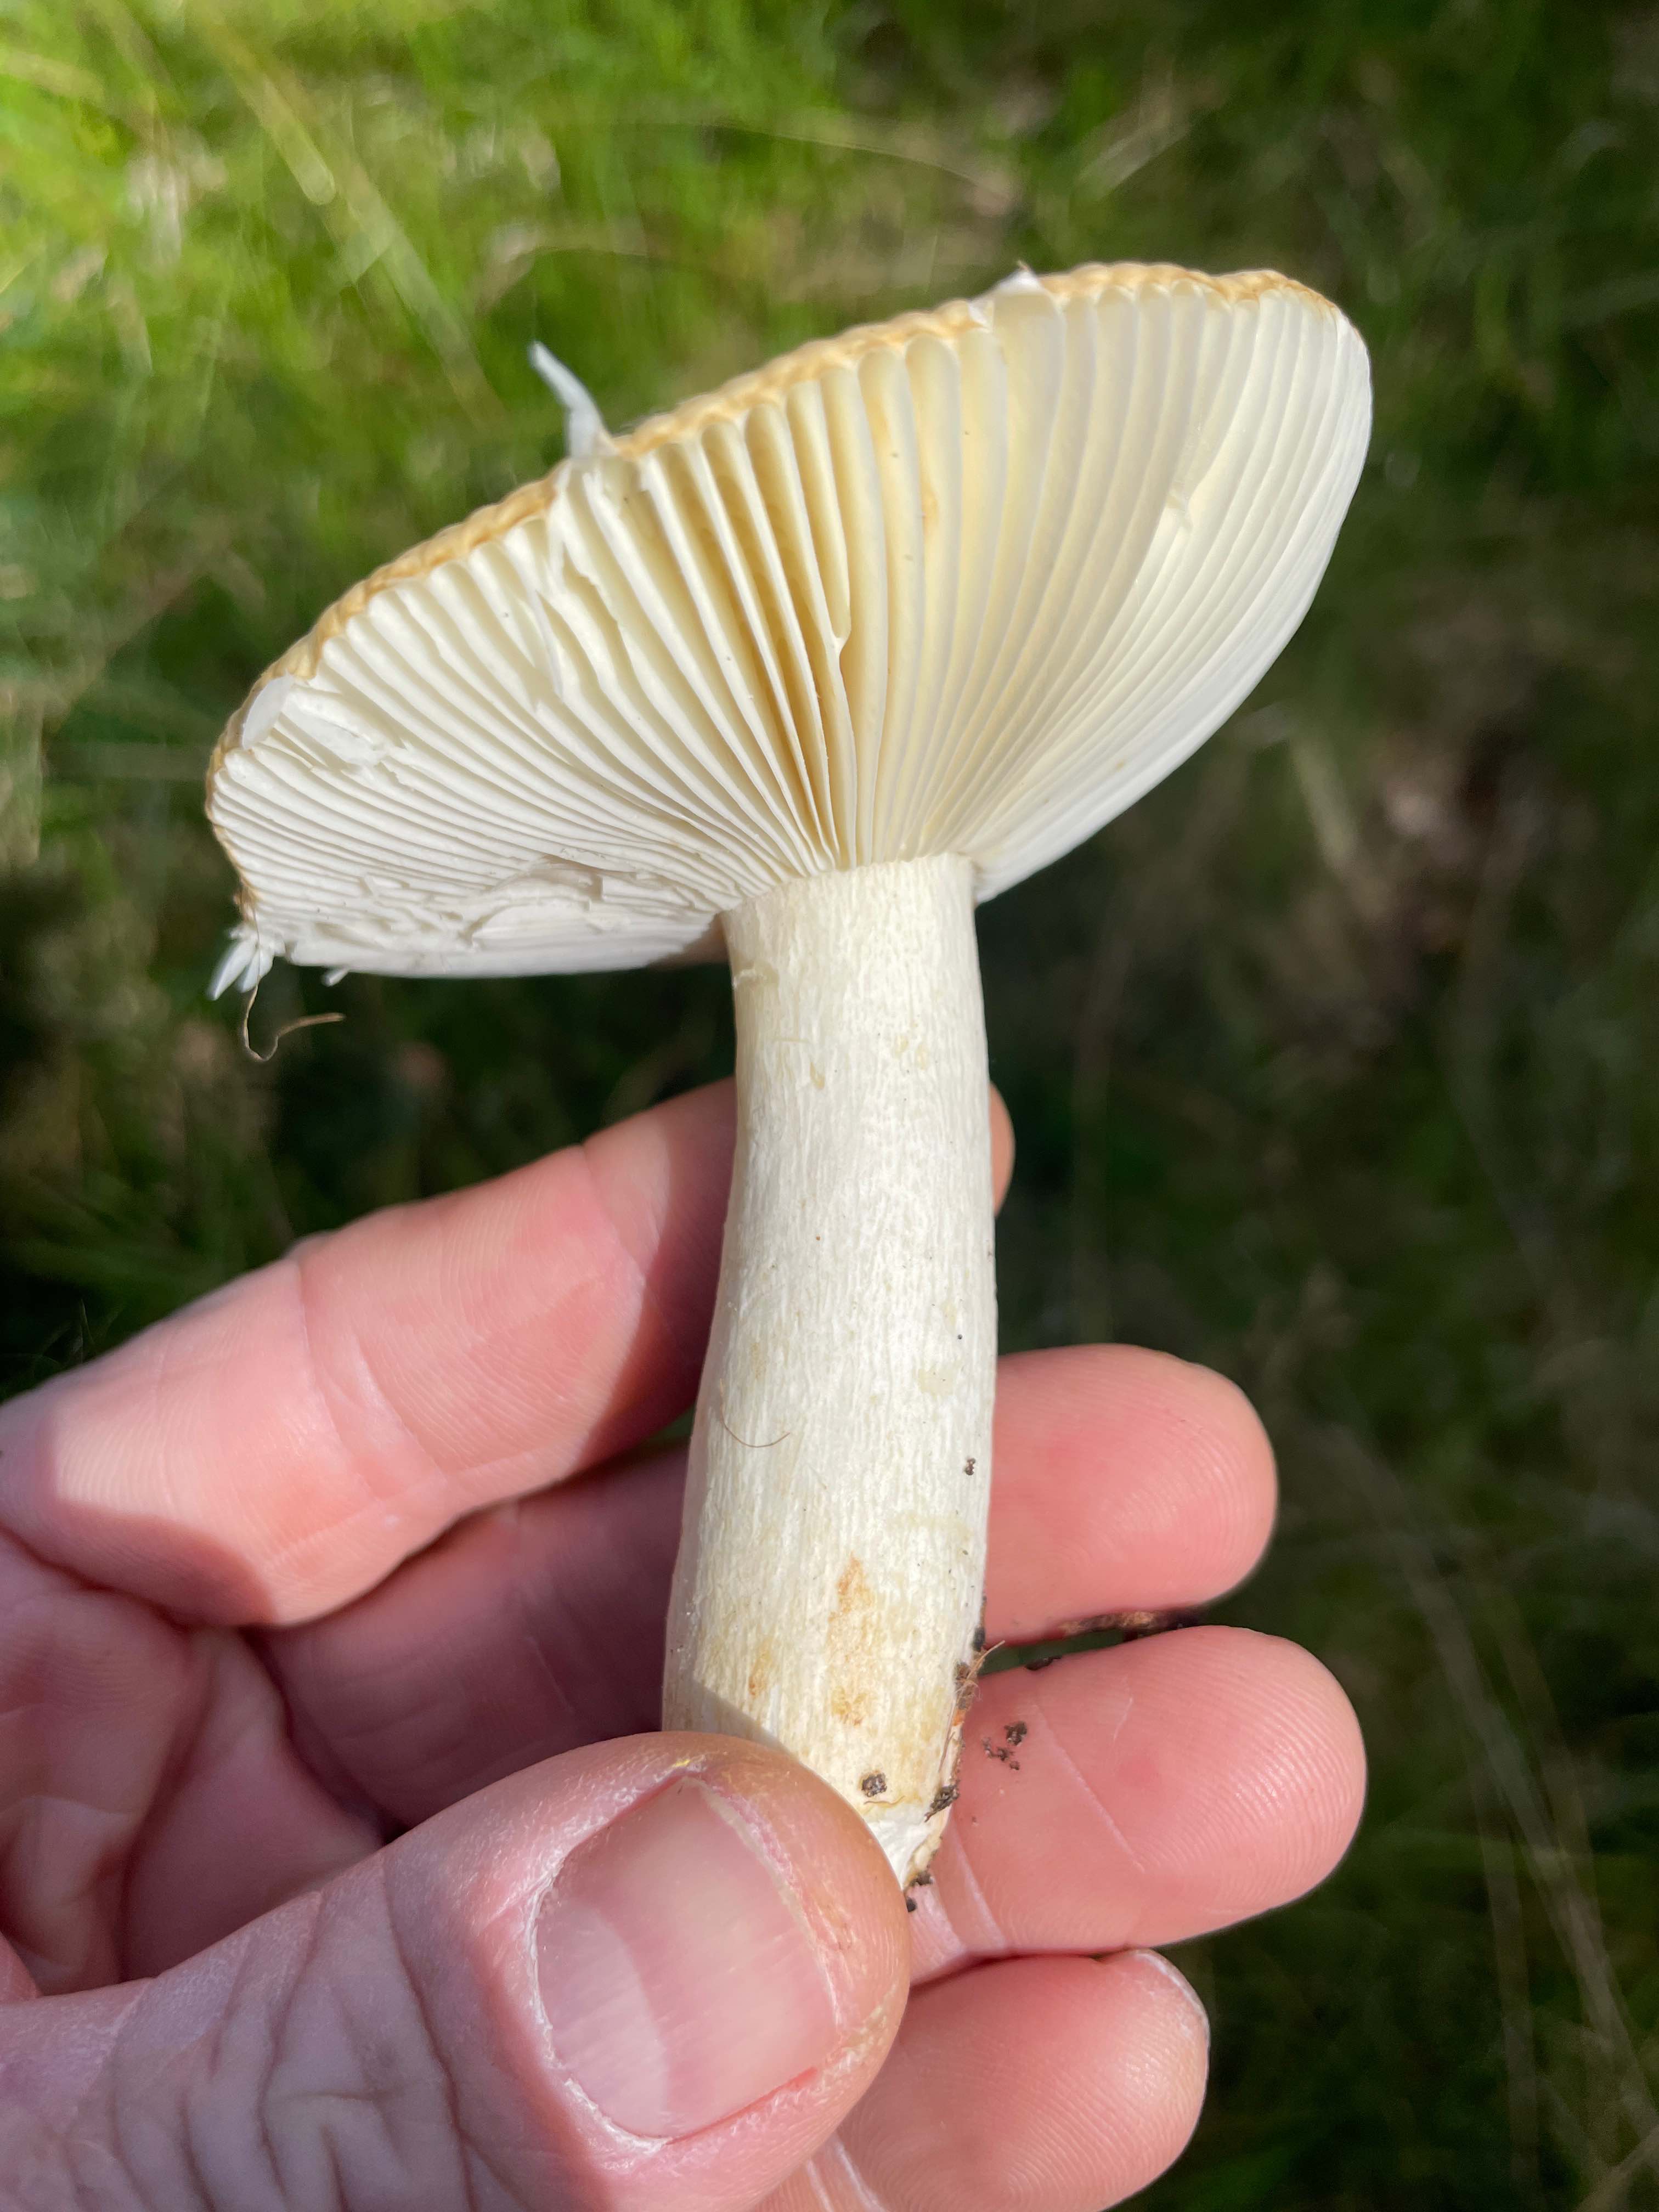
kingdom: Fungi
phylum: Basidiomycota
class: Agaricomycetes
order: Russulales
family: Russulaceae
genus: Russula
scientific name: Russula ochroleuca
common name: okkergul skørhat
